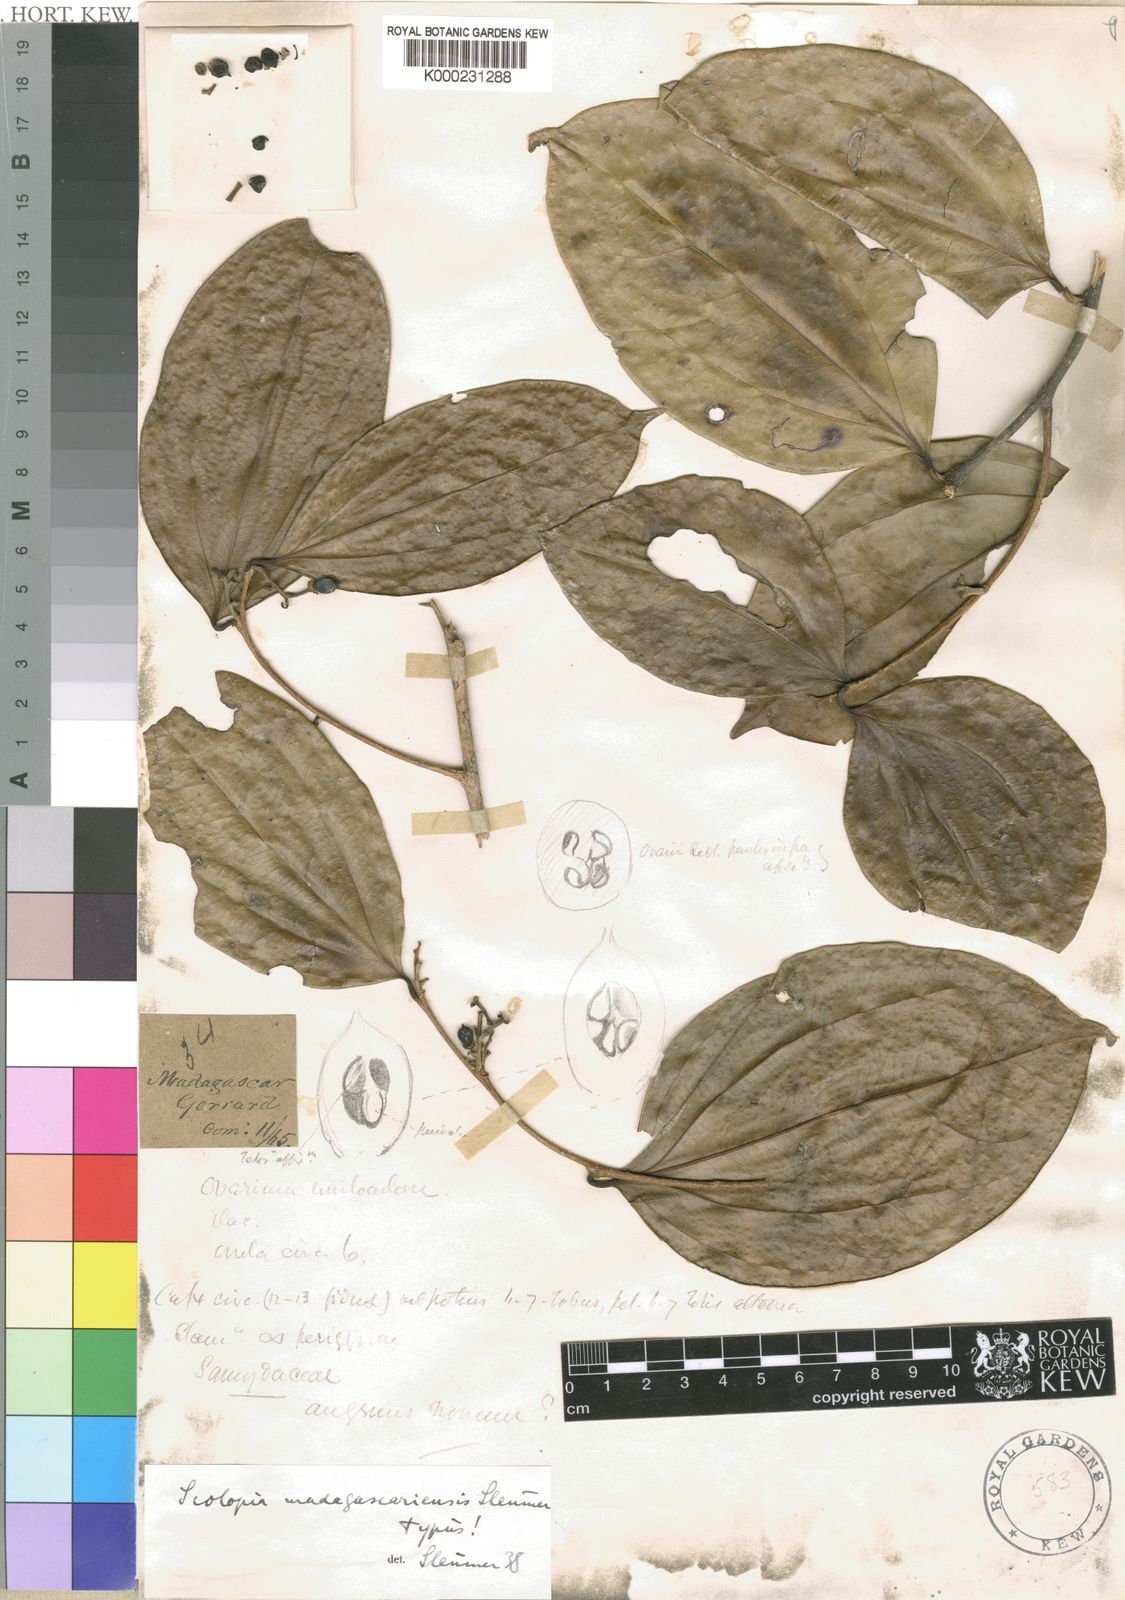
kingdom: Plantae
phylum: Tracheophyta
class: Magnoliopsida
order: Malpighiales
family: Salicaceae
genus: Scolopia
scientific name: Scolopia
